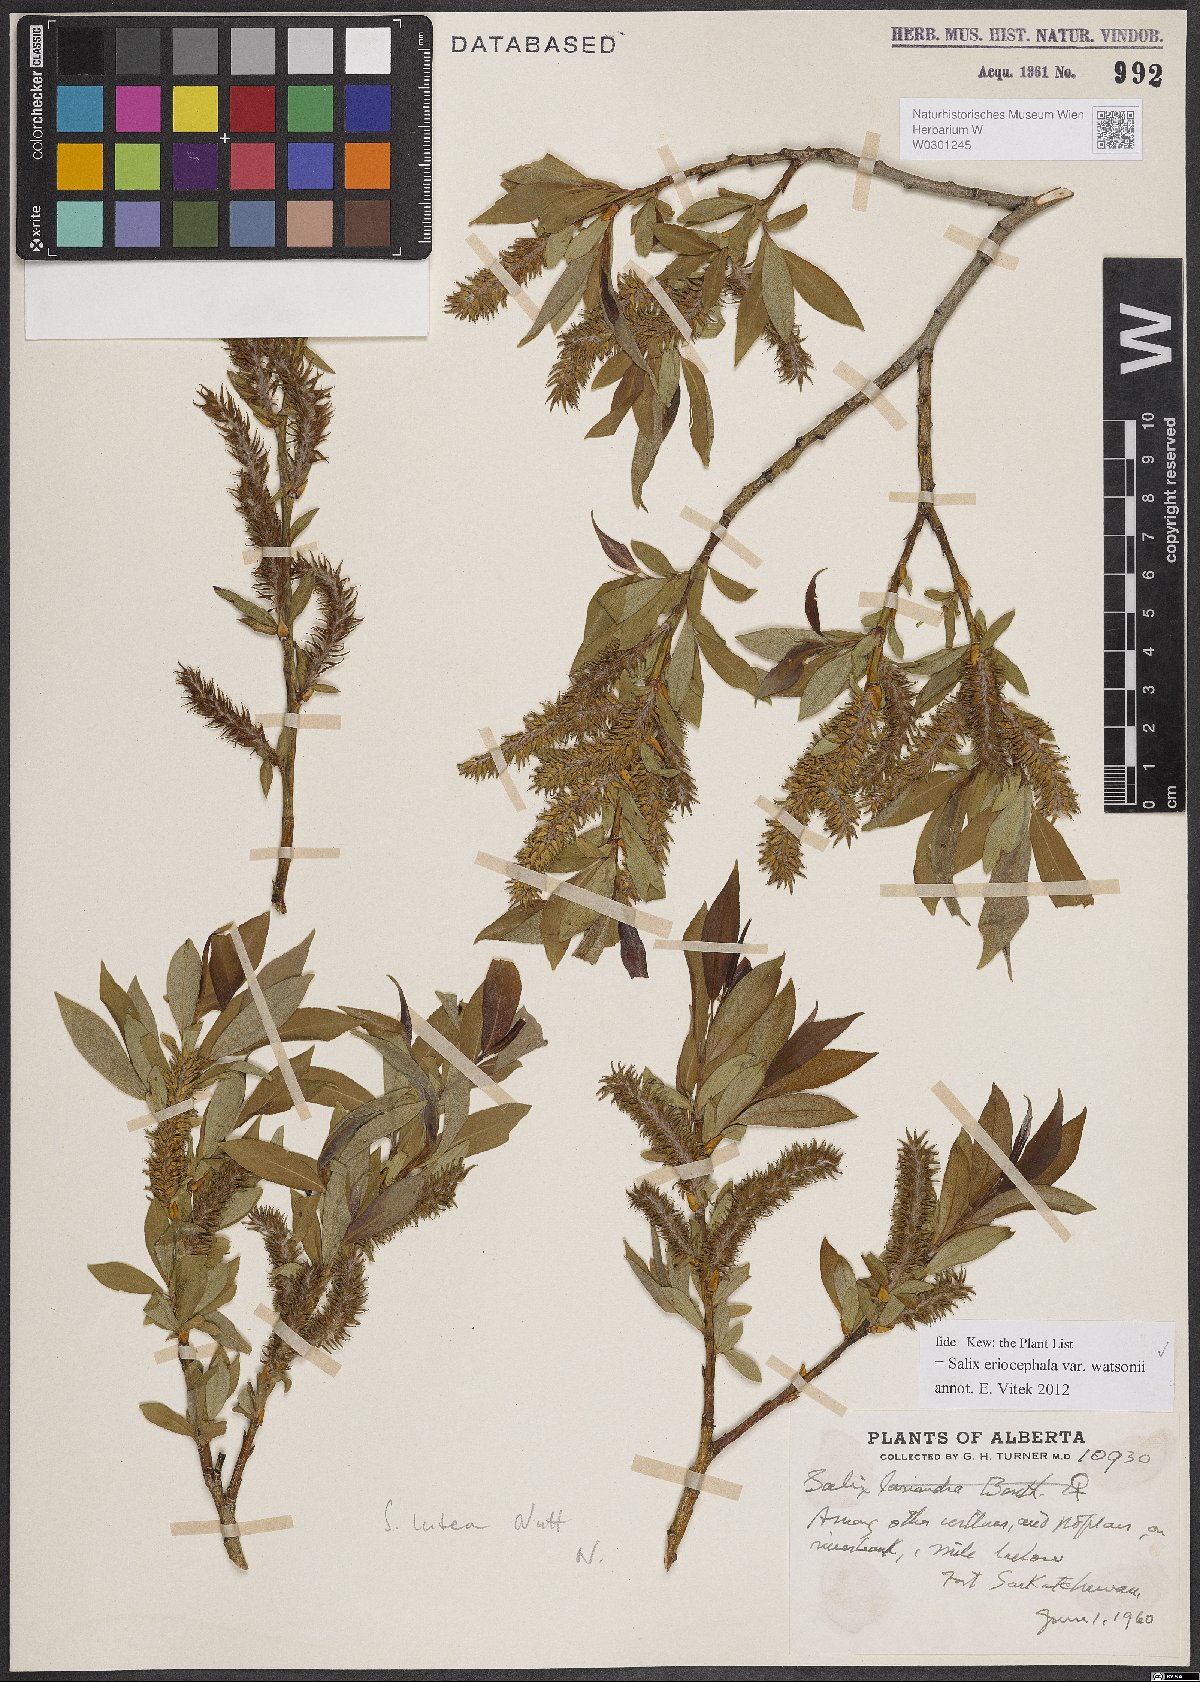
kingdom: Plantae
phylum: Tracheophyta
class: Magnoliopsida
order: Malpighiales
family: Salicaceae
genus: Salix
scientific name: Salix lutea
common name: Yellow willow
